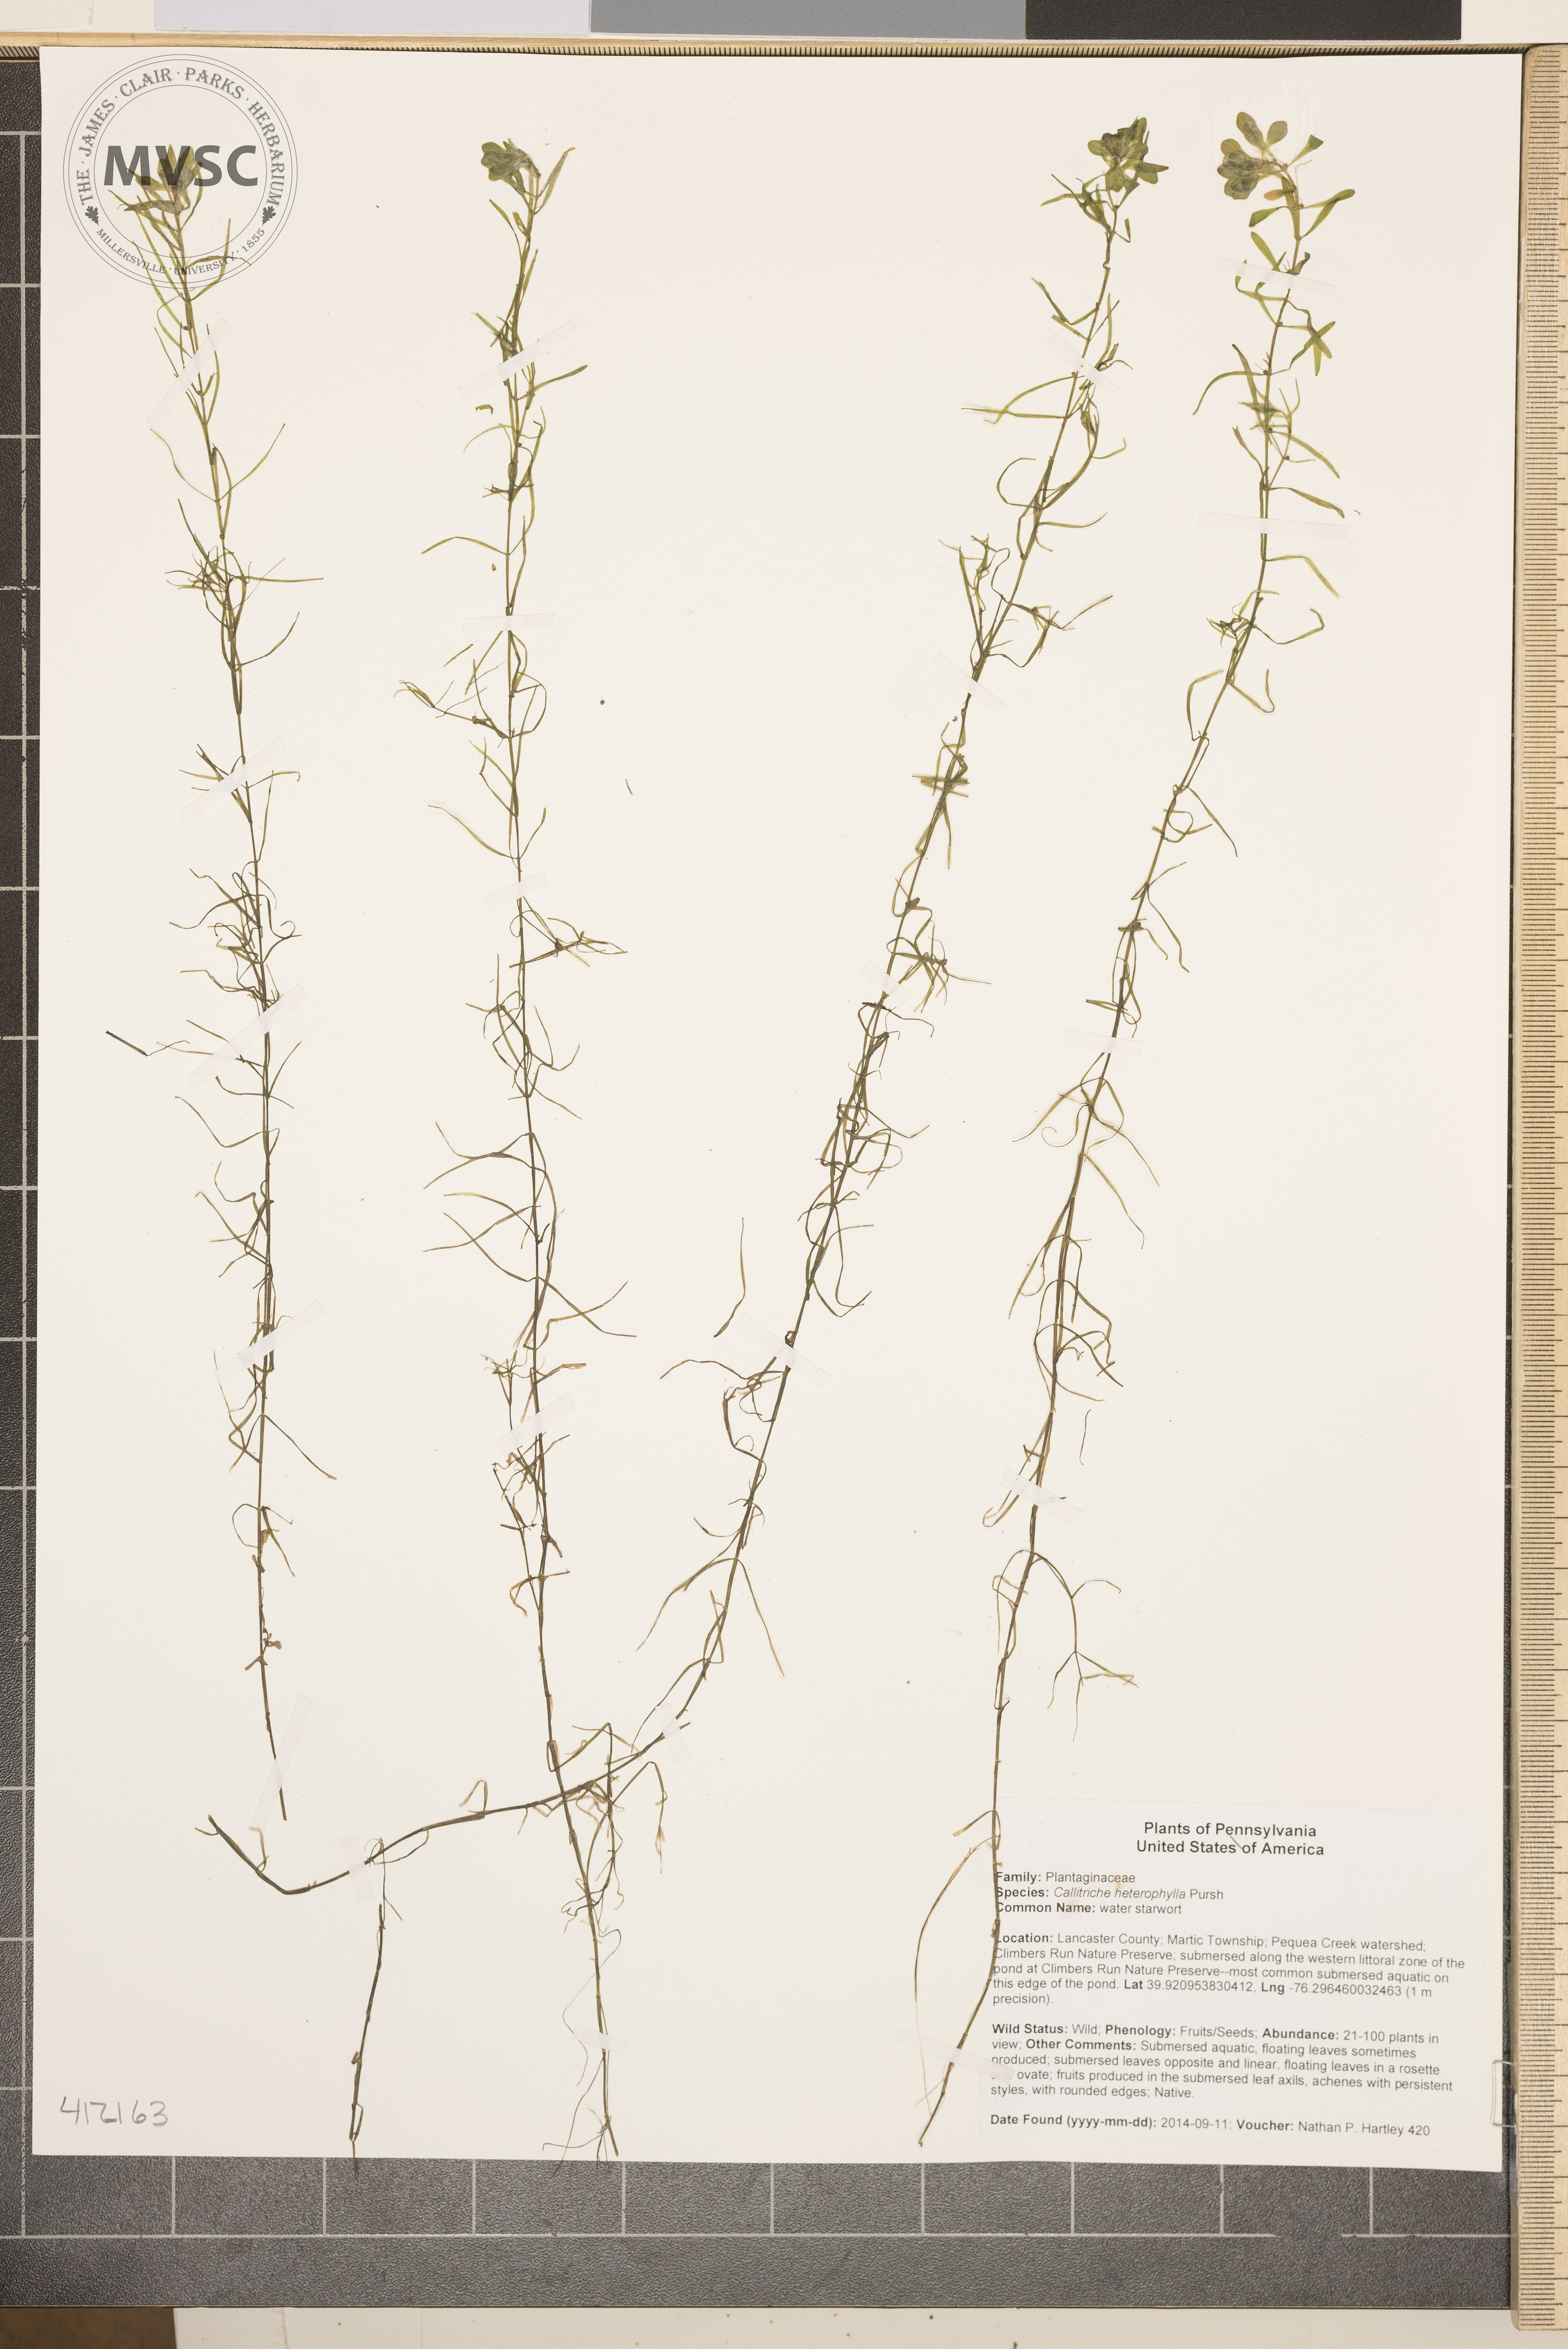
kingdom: Plantae
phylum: Tracheophyta
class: Magnoliopsida
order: Lamiales
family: Plantaginaceae
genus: Callitriche
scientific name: Callitriche heterophylla
